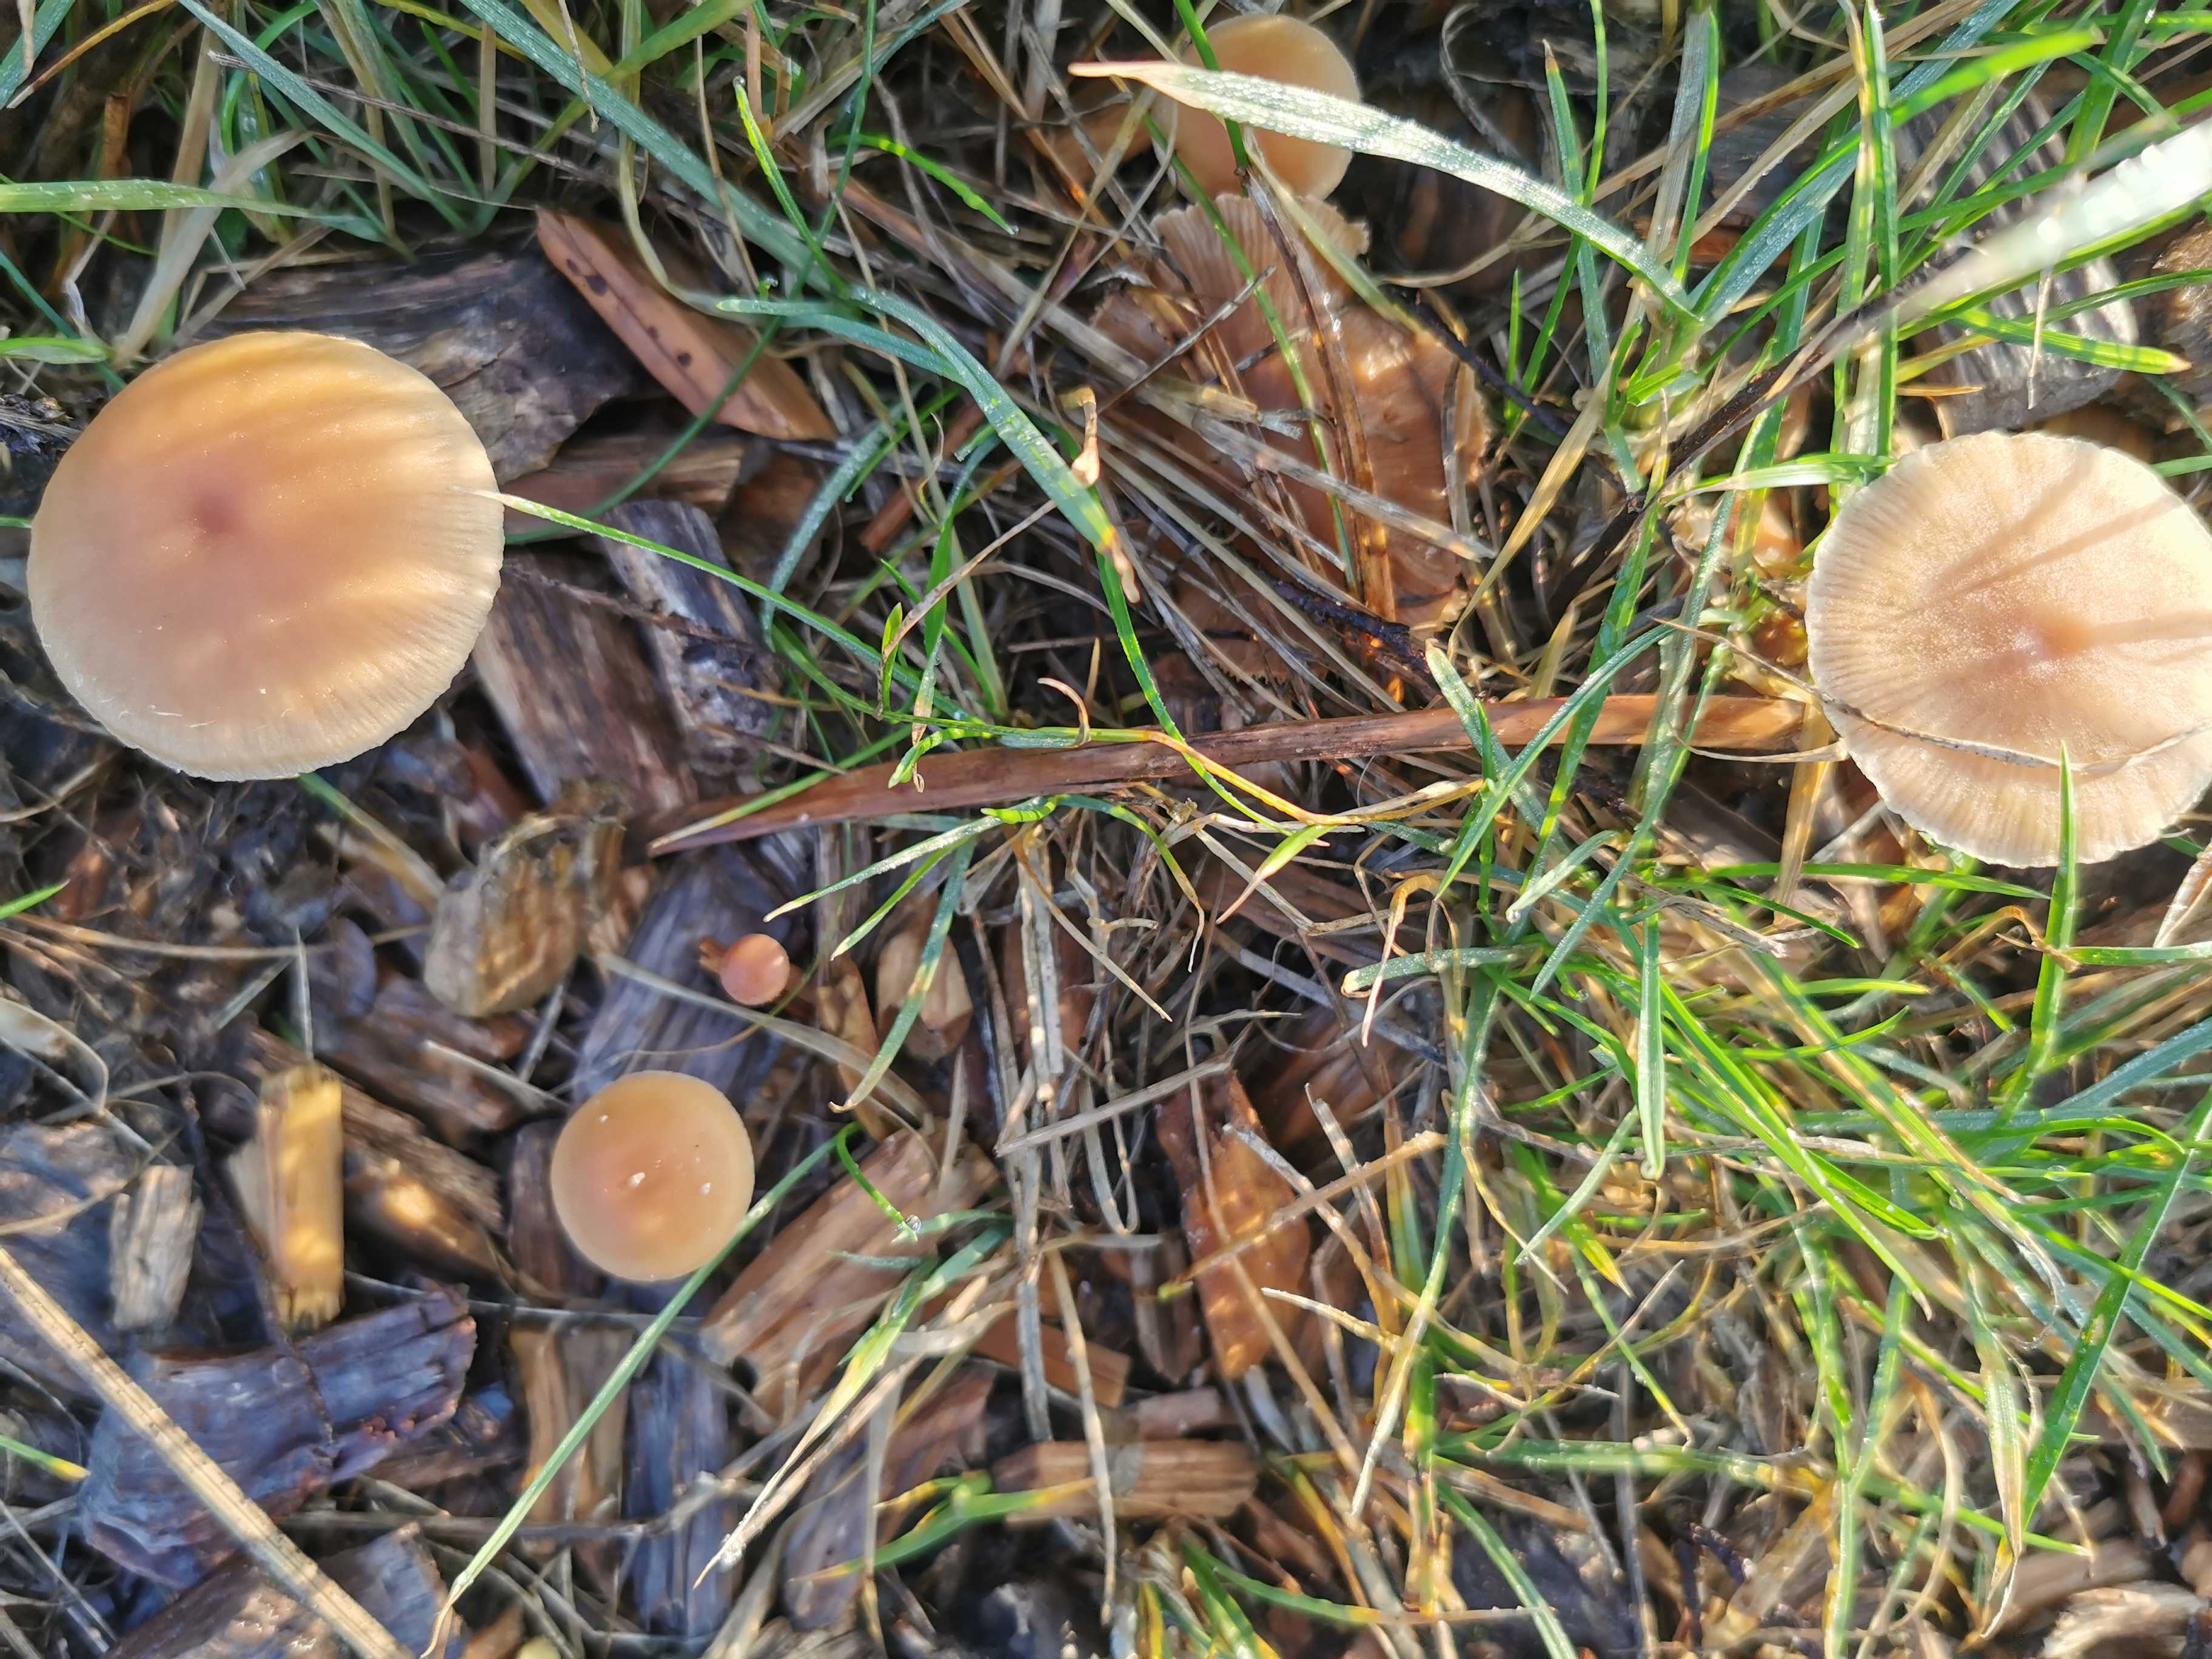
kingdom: Fungi
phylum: Basidiomycota
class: Agaricomycetes
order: Agaricales
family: Tubariaceae
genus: Tubaria
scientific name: Tubaria furfuracea
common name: kliddet fnughat
